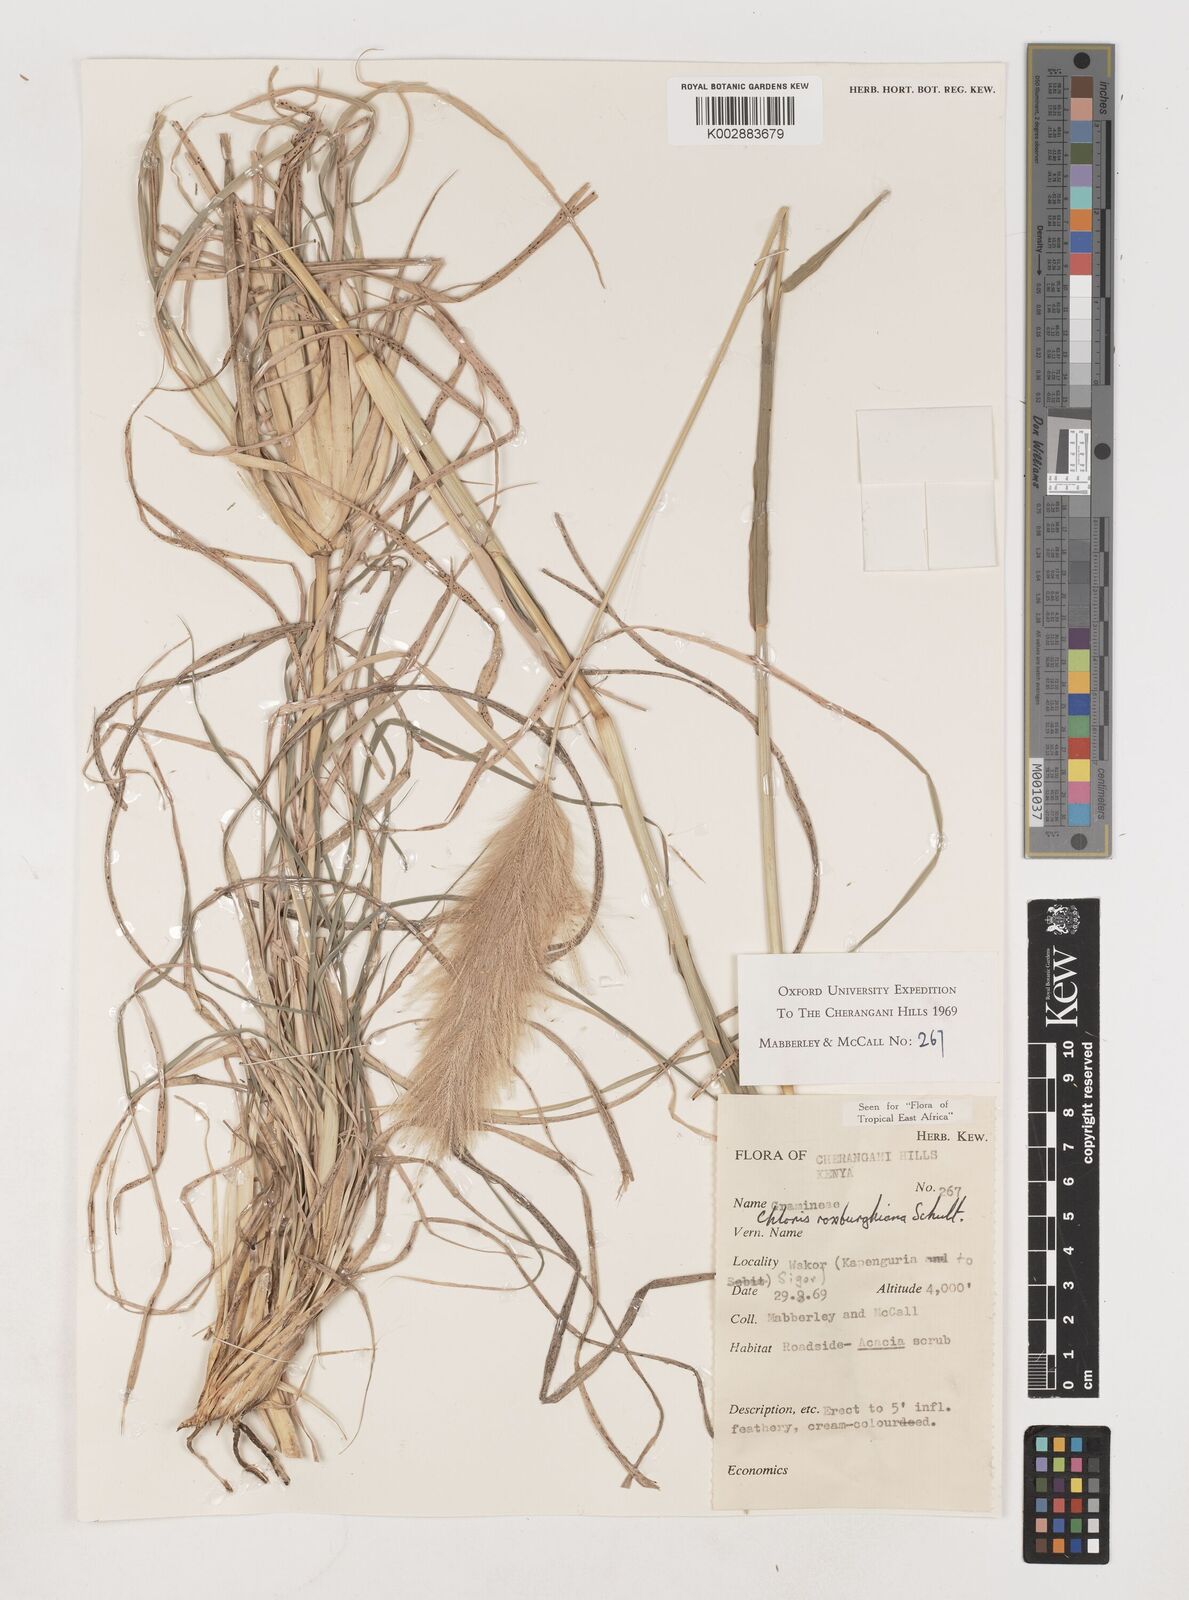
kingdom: Plantae
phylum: Tracheophyta
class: Liliopsida
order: Poales
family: Poaceae
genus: Tetrapogon
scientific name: Tetrapogon roxburghiana
